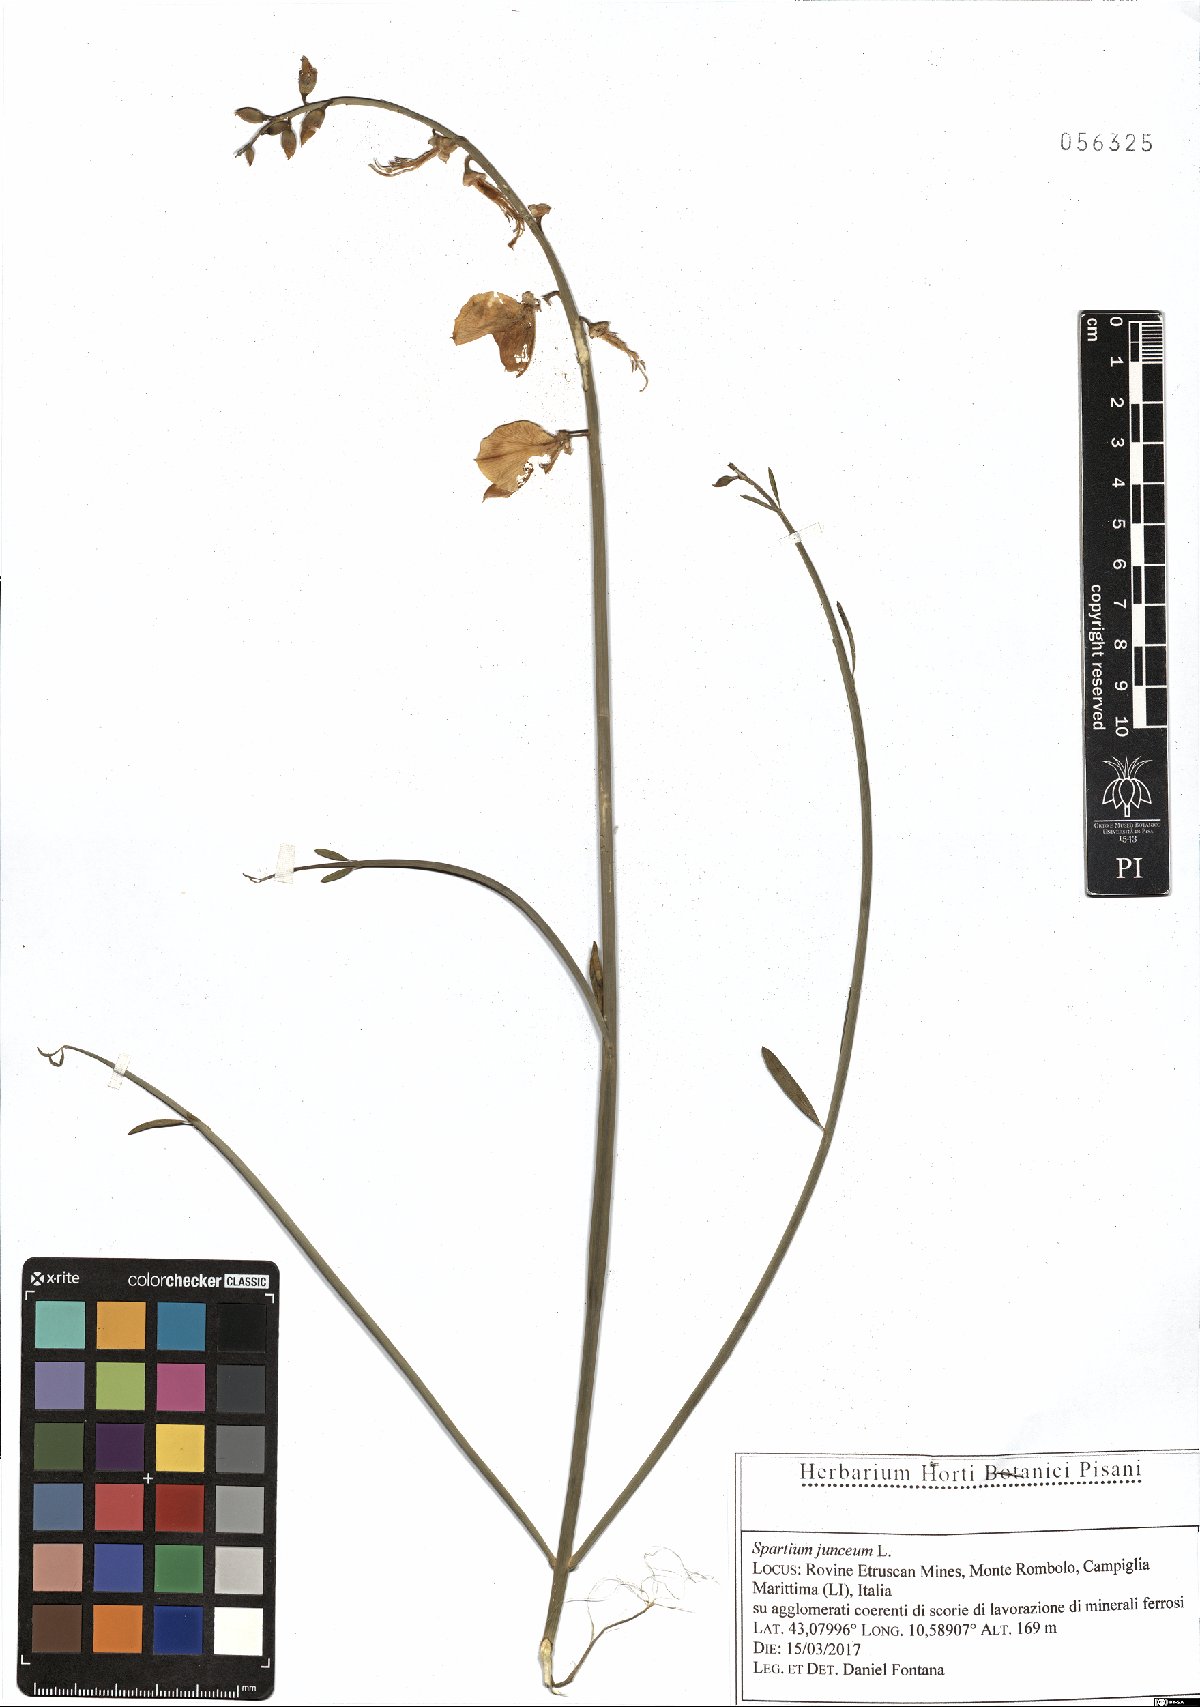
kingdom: Plantae
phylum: Tracheophyta
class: Magnoliopsida
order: Fabales
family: Fabaceae
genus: Spartium
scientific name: Spartium junceum
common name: Spanish broom
